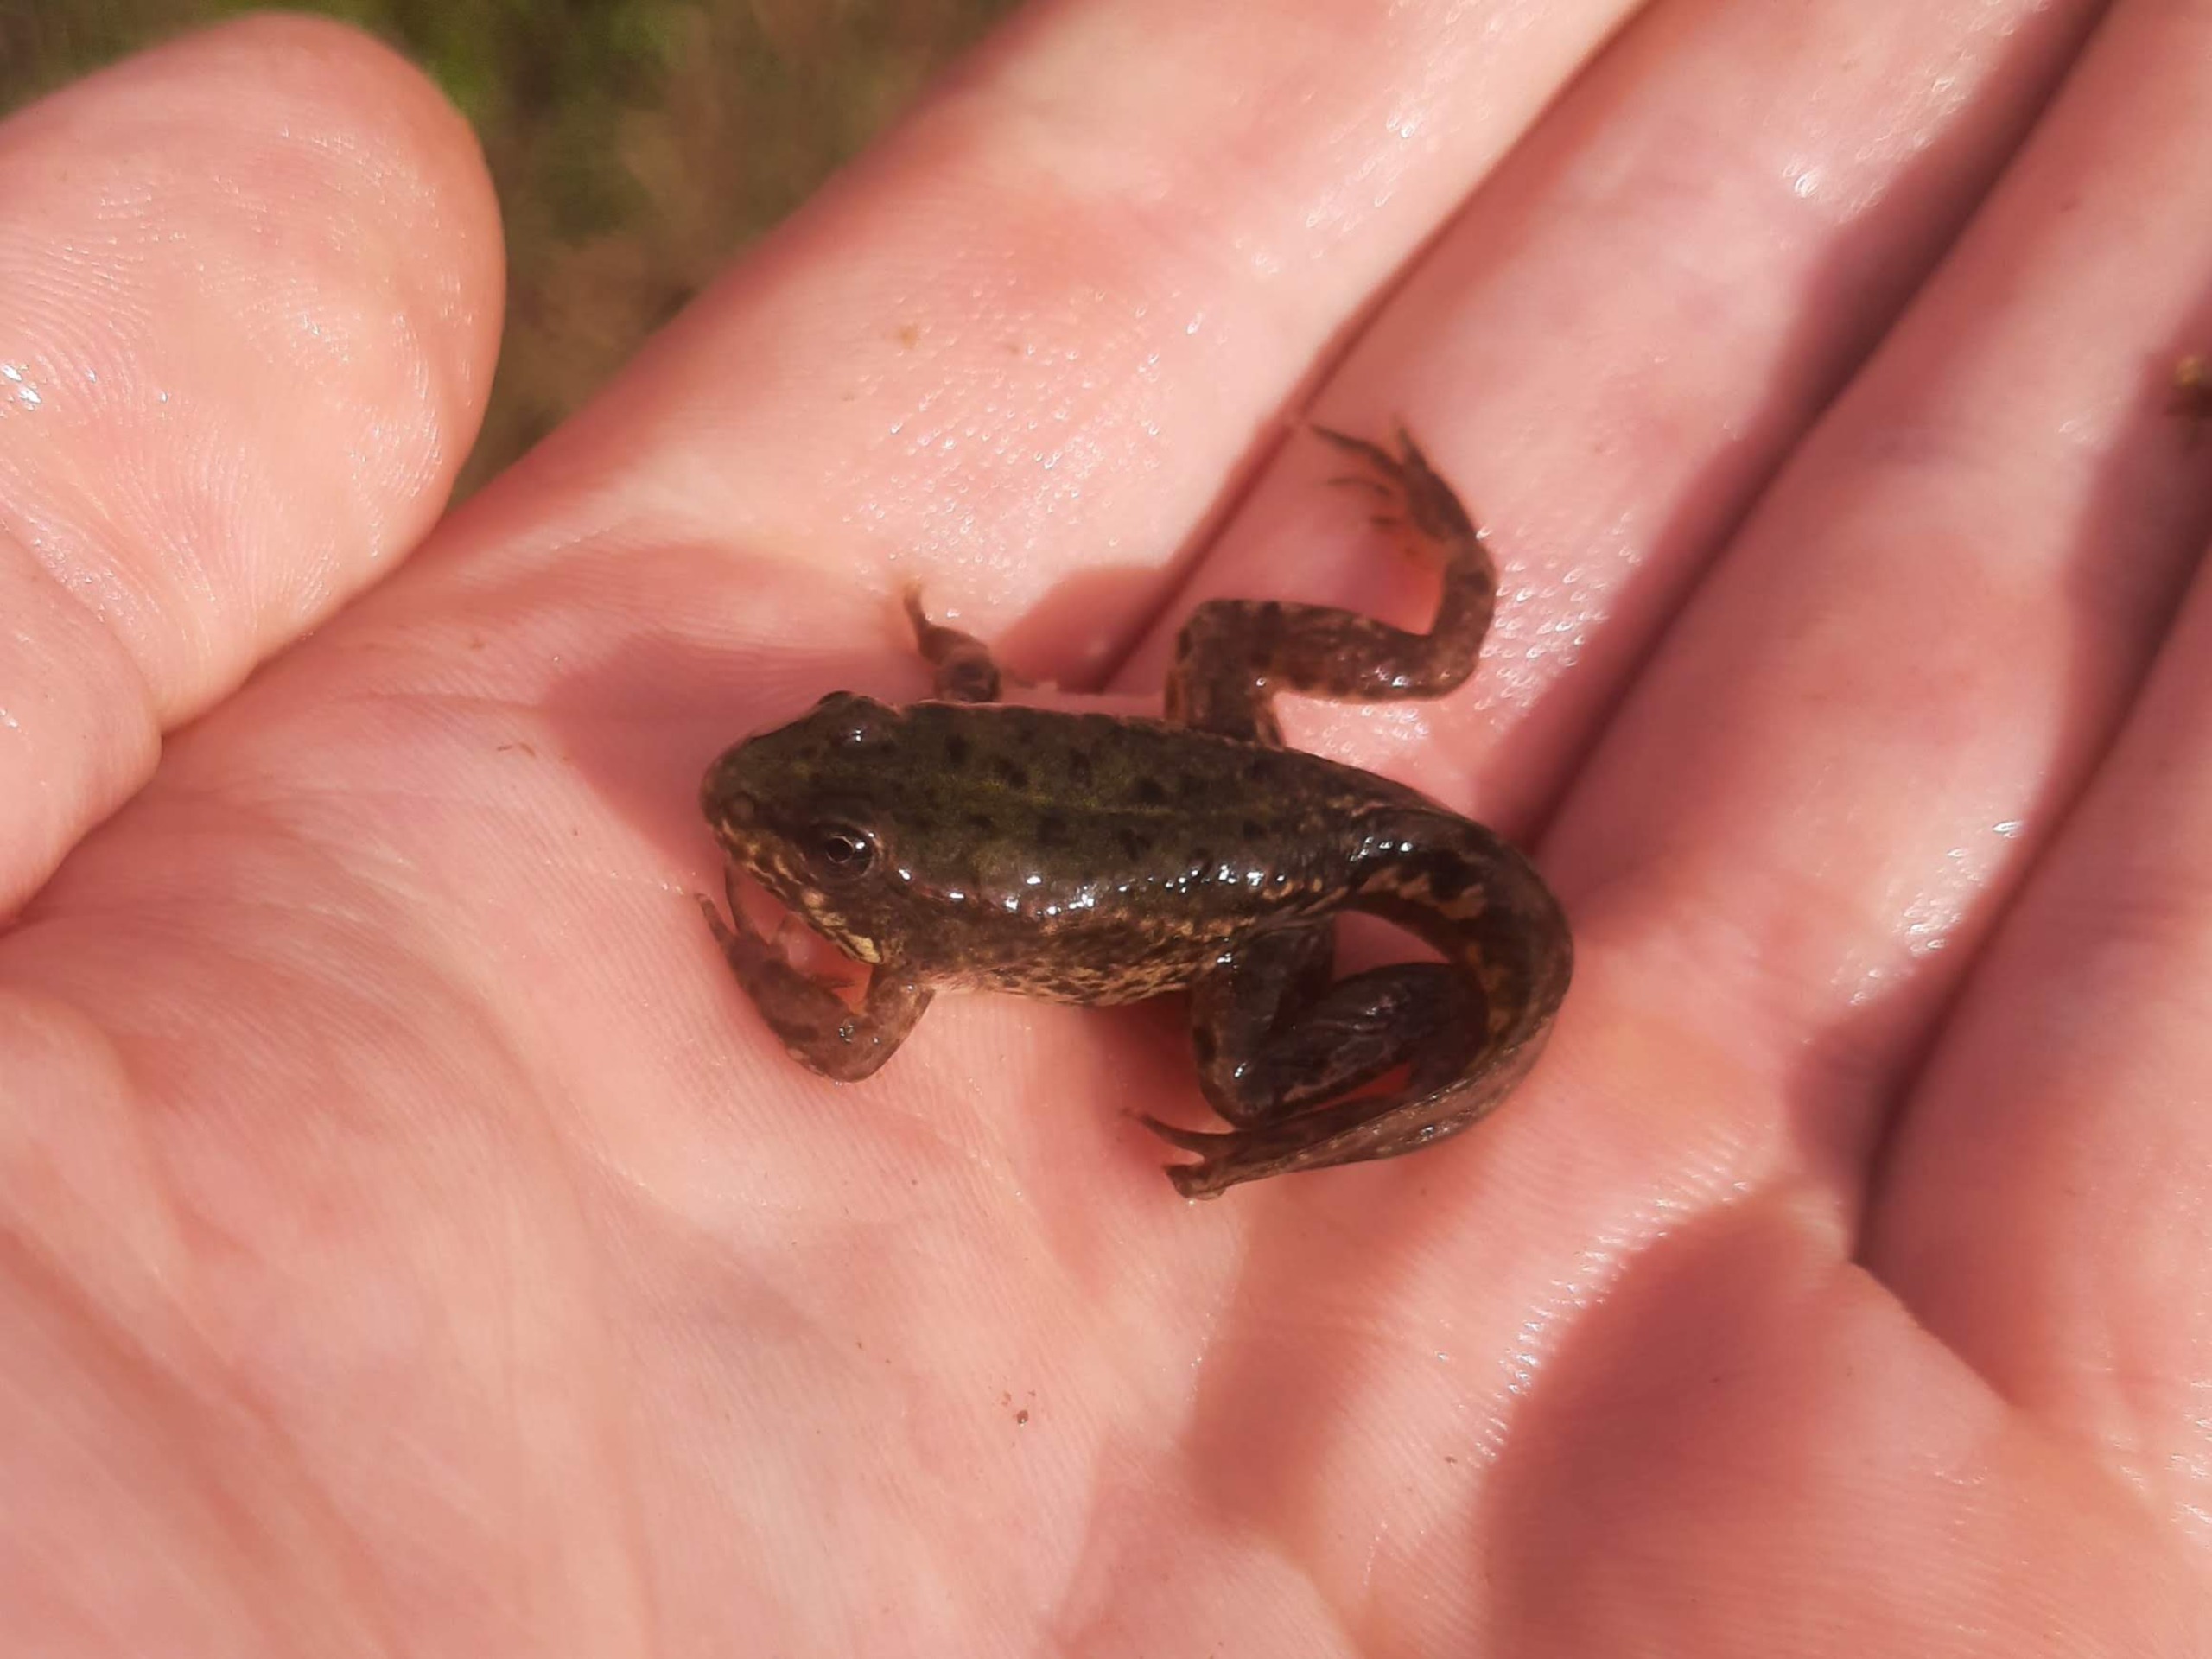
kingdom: Animalia
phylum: Chordata
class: Amphibia
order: Anura
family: Ranidae
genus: Pelophylax
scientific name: Pelophylax lessonae
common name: Grøn frø
